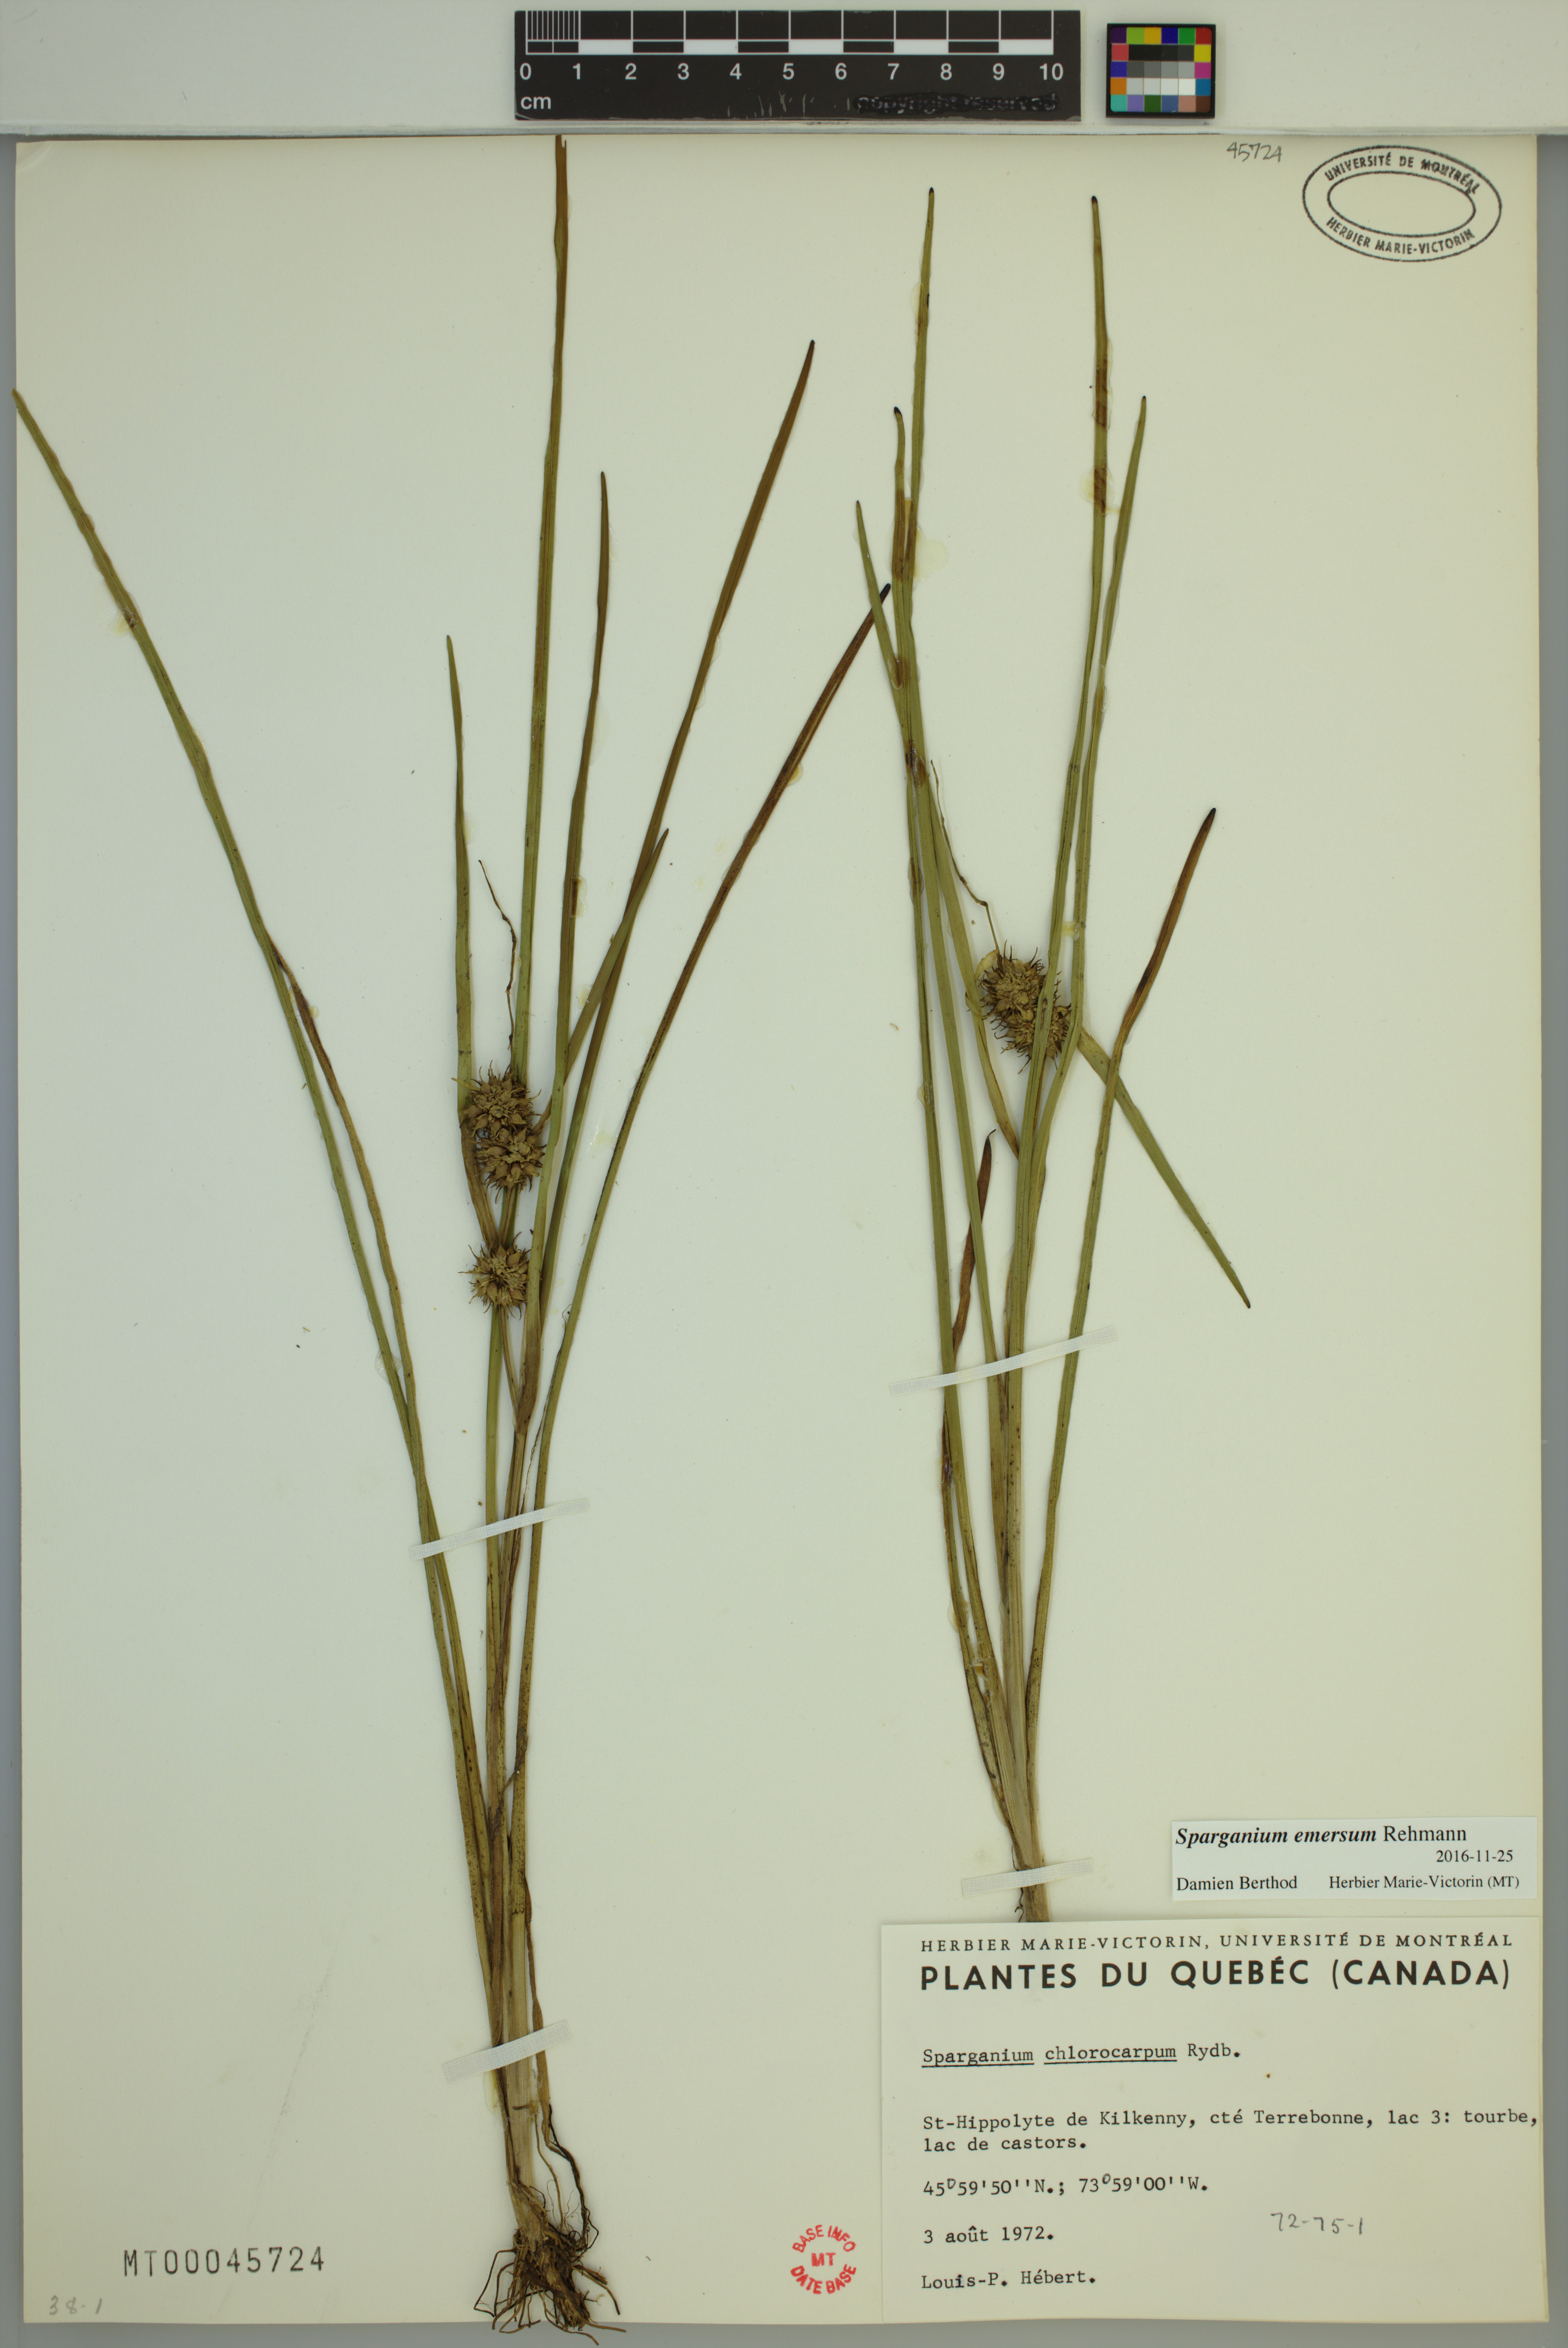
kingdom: Plantae
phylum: Tracheophyta
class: Liliopsida
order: Poales
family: Typhaceae
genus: Sparganium
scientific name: Sparganium emersum
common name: Unbranched bur-reed
